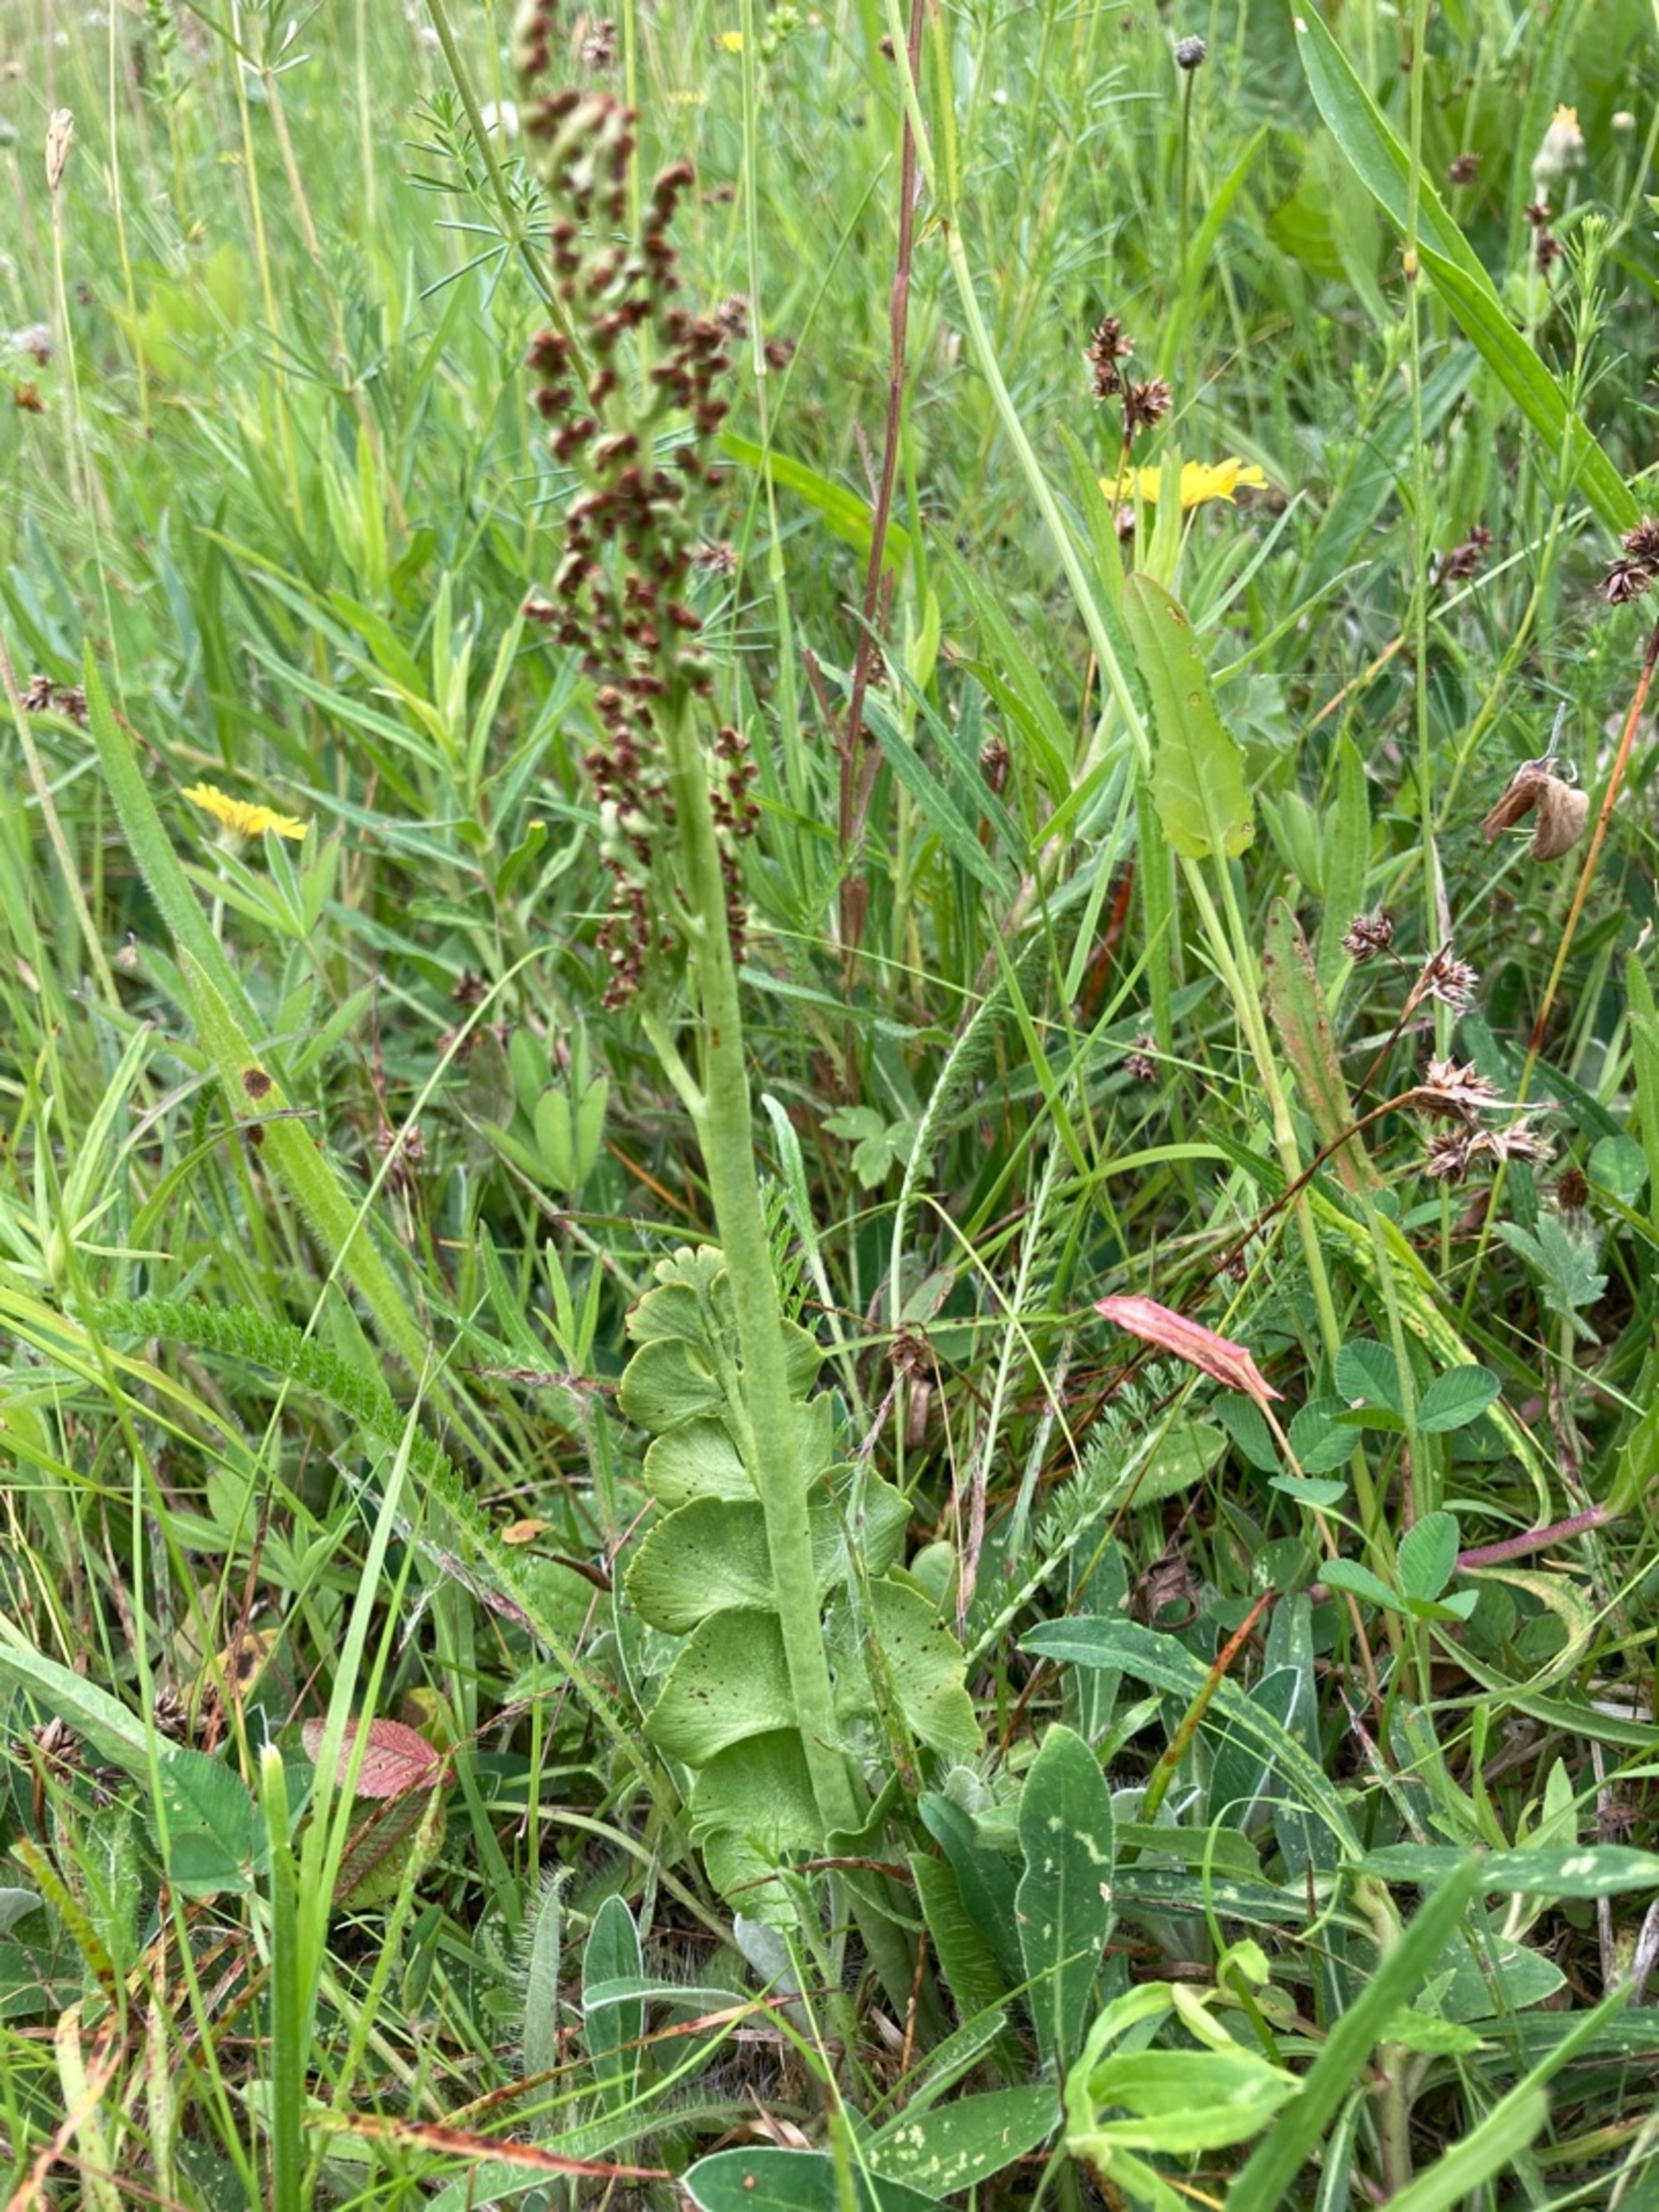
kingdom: Plantae
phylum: Tracheophyta
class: Polypodiopsida
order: Ophioglossales
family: Ophioglossaceae
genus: Botrychium
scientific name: Botrychium lunaria
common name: Almindelig månerude
